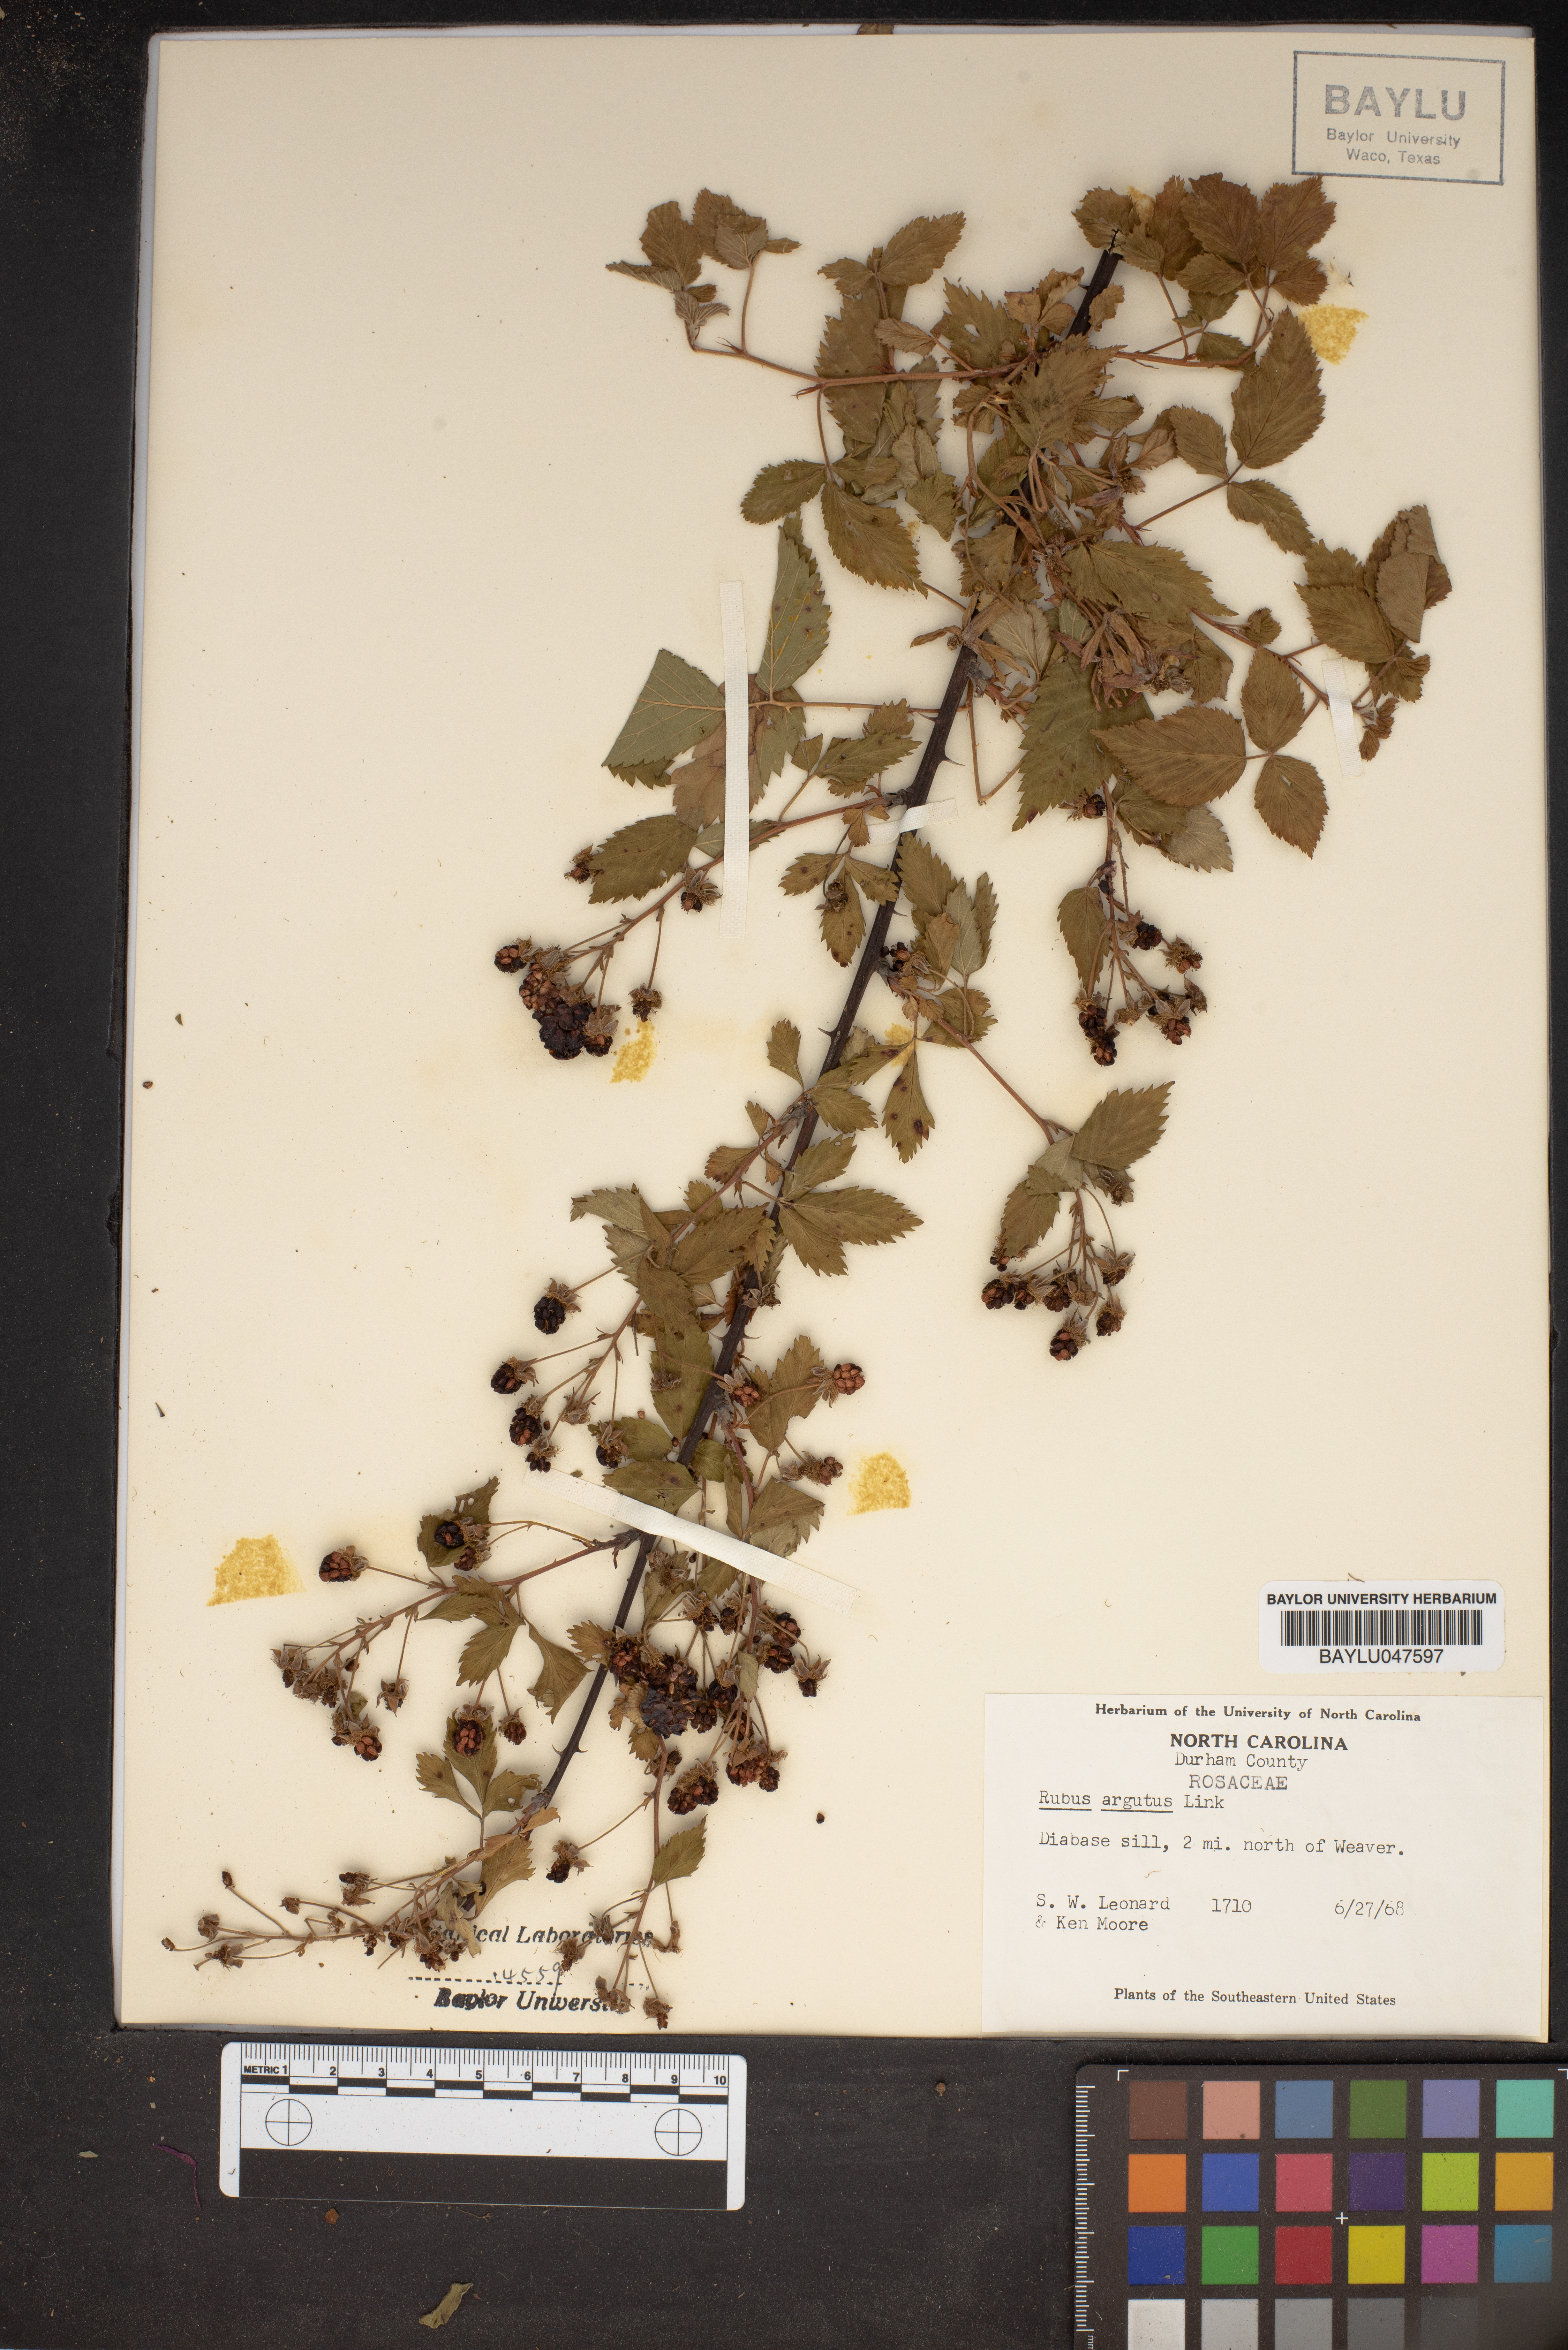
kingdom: Plantae
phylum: Tracheophyta
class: Magnoliopsida
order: Rosales
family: Rosaceae
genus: Rubus
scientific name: Rubus argutus
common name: Sawtooth blackberry
